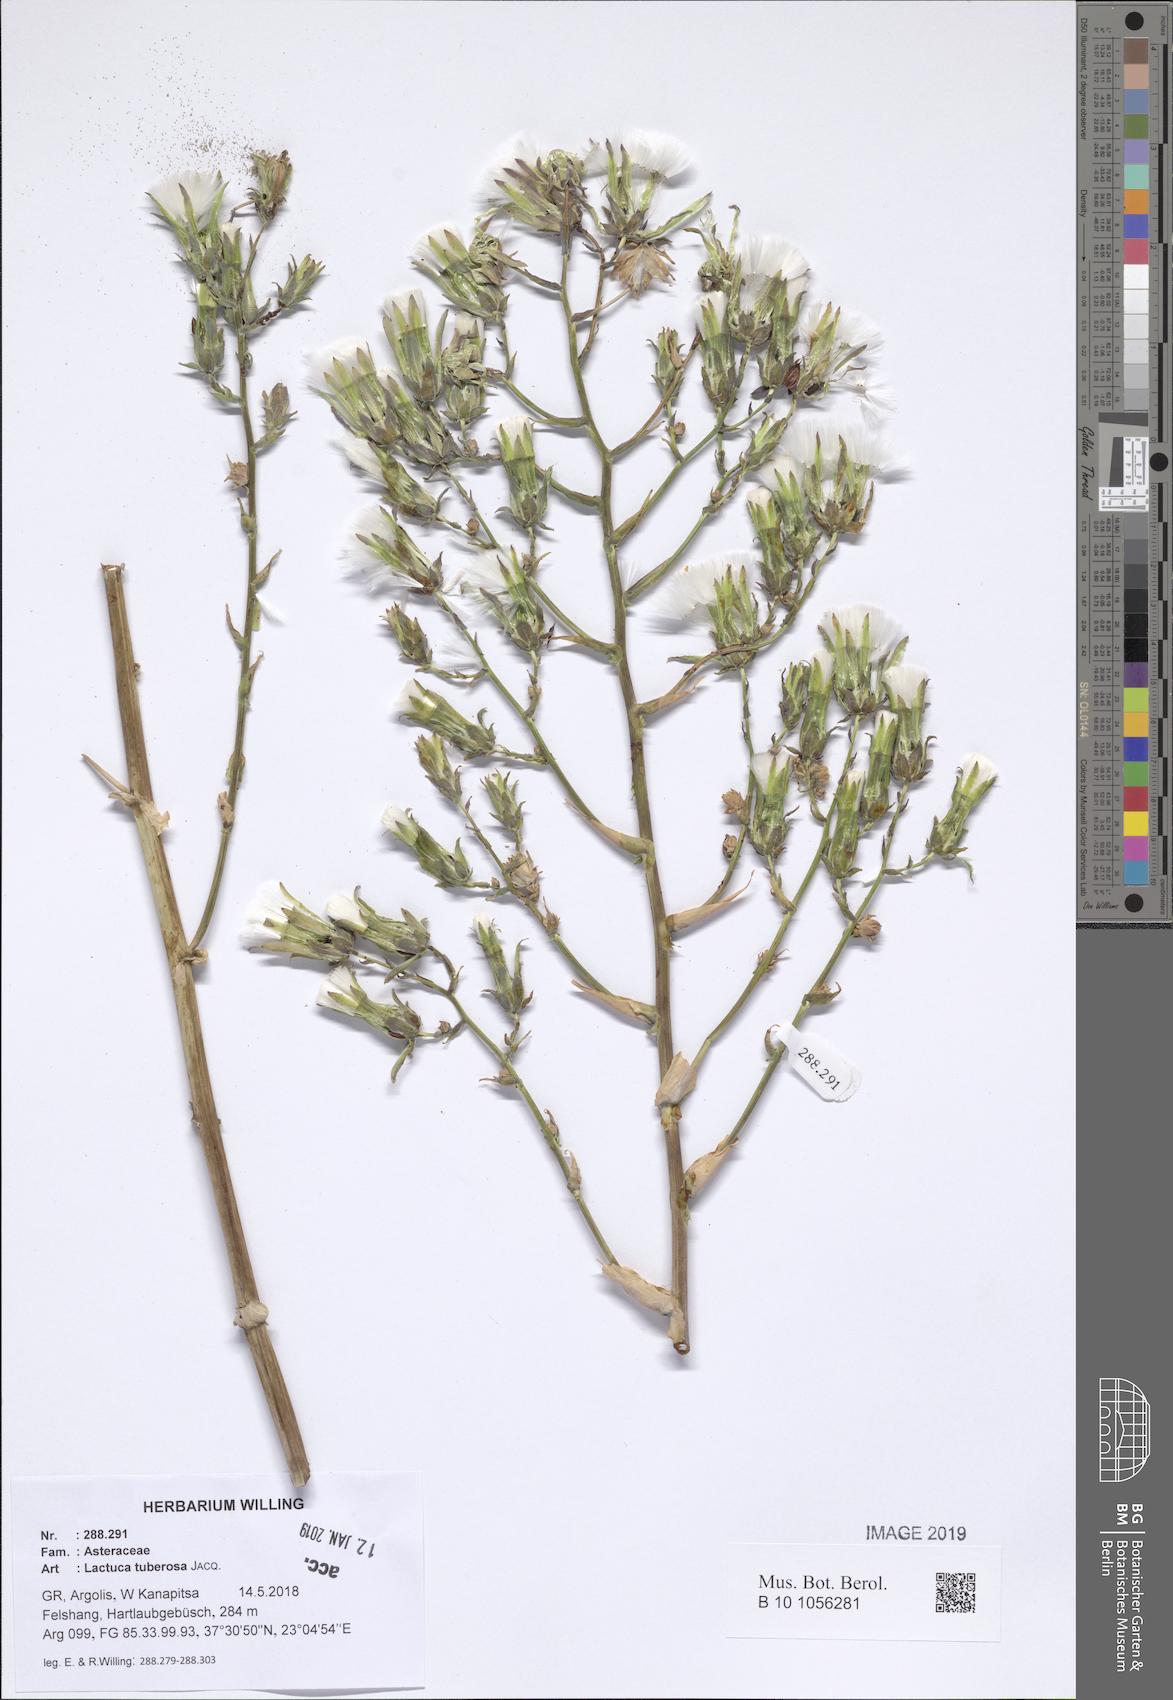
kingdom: Plantae
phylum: Tracheophyta
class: Magnoliopsida
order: Asterales
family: Asteraceae
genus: Lactuca
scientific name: Lactuca tuberosa
